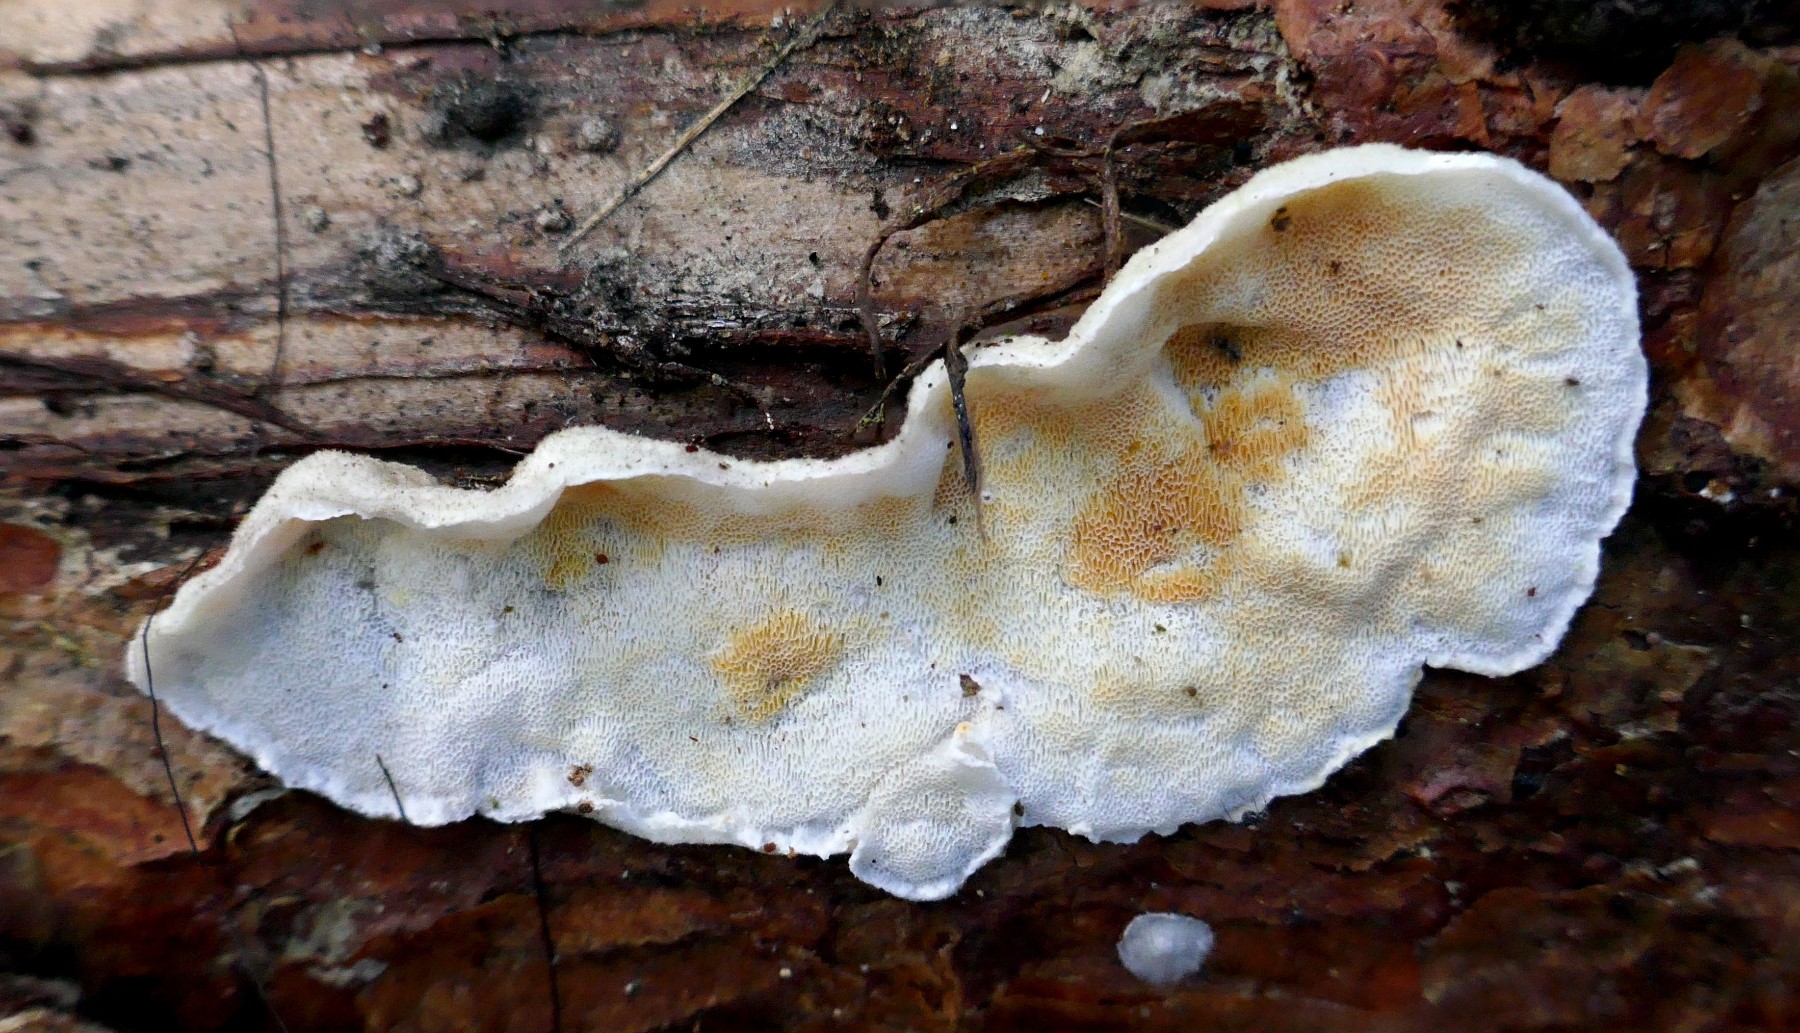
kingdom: Fungi
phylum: Basidiomycota
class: Agaricomycetes
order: Polyporales
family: Incrustoporiaceae
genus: Skeletocutis
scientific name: Skeletocutis amorpha
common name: orange krystalporesvamp
